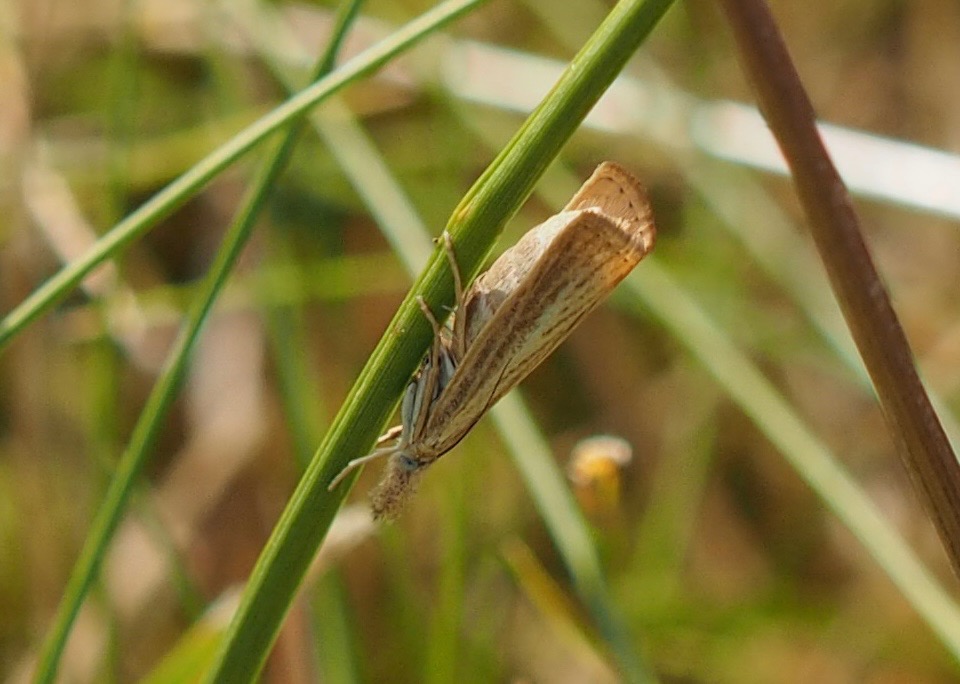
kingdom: Animalia
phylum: Arthropoda
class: Insecta
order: Lepidoptera
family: Crambidae
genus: Agriphila
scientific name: Agriphila straminella
